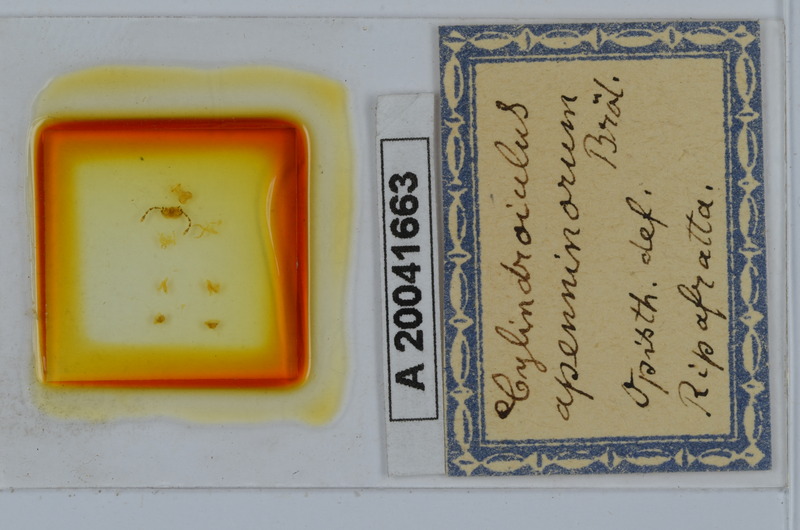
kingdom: Animalia
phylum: Arthropoda
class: Diplopoda
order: Julida
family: Julidae
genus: Cylindroiulus
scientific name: Cylindroiulus apenninorum
